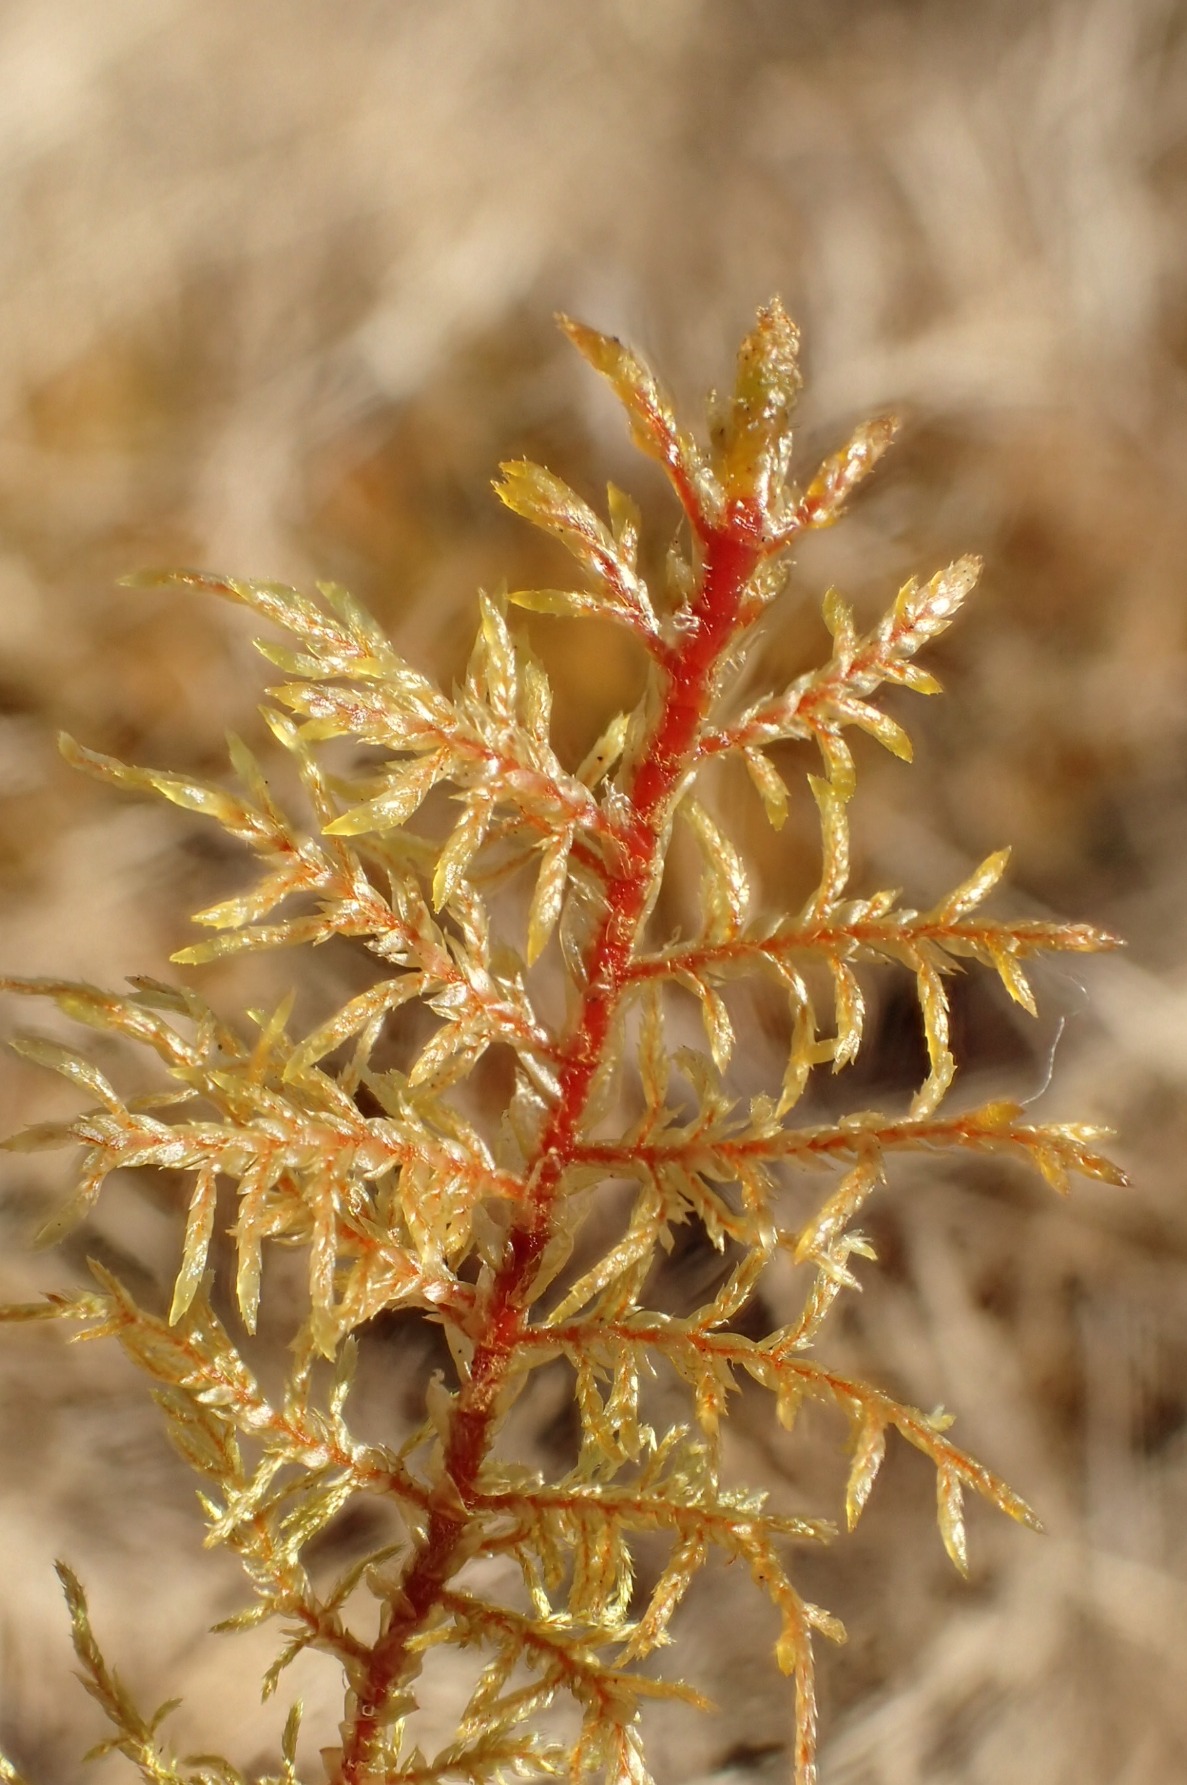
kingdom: Plantae
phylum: Bryophyta
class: Bryopsida
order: Hypnales
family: Hylocomiaceae
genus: Hylocomium
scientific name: Hylocomium splendens
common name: Almindelig etagemos
